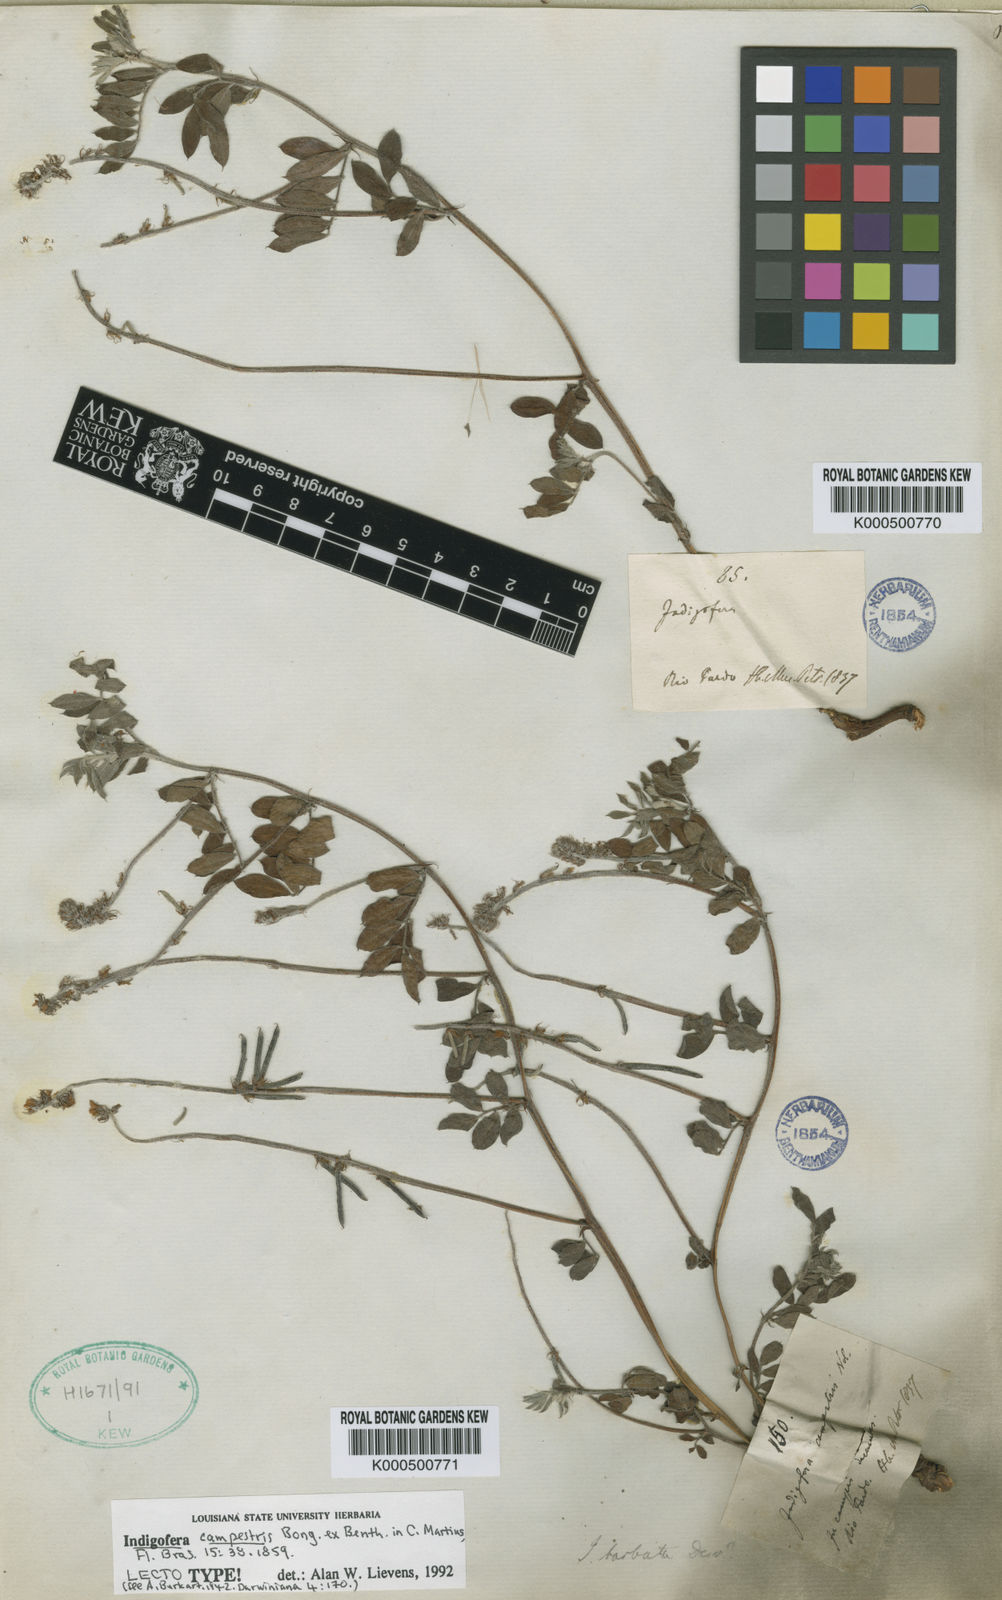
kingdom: Plantae
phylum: Tracheophyta
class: Magnoliopsida
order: Fabales
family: Fabaceae
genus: Indigofera
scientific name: Indigofera campestris
